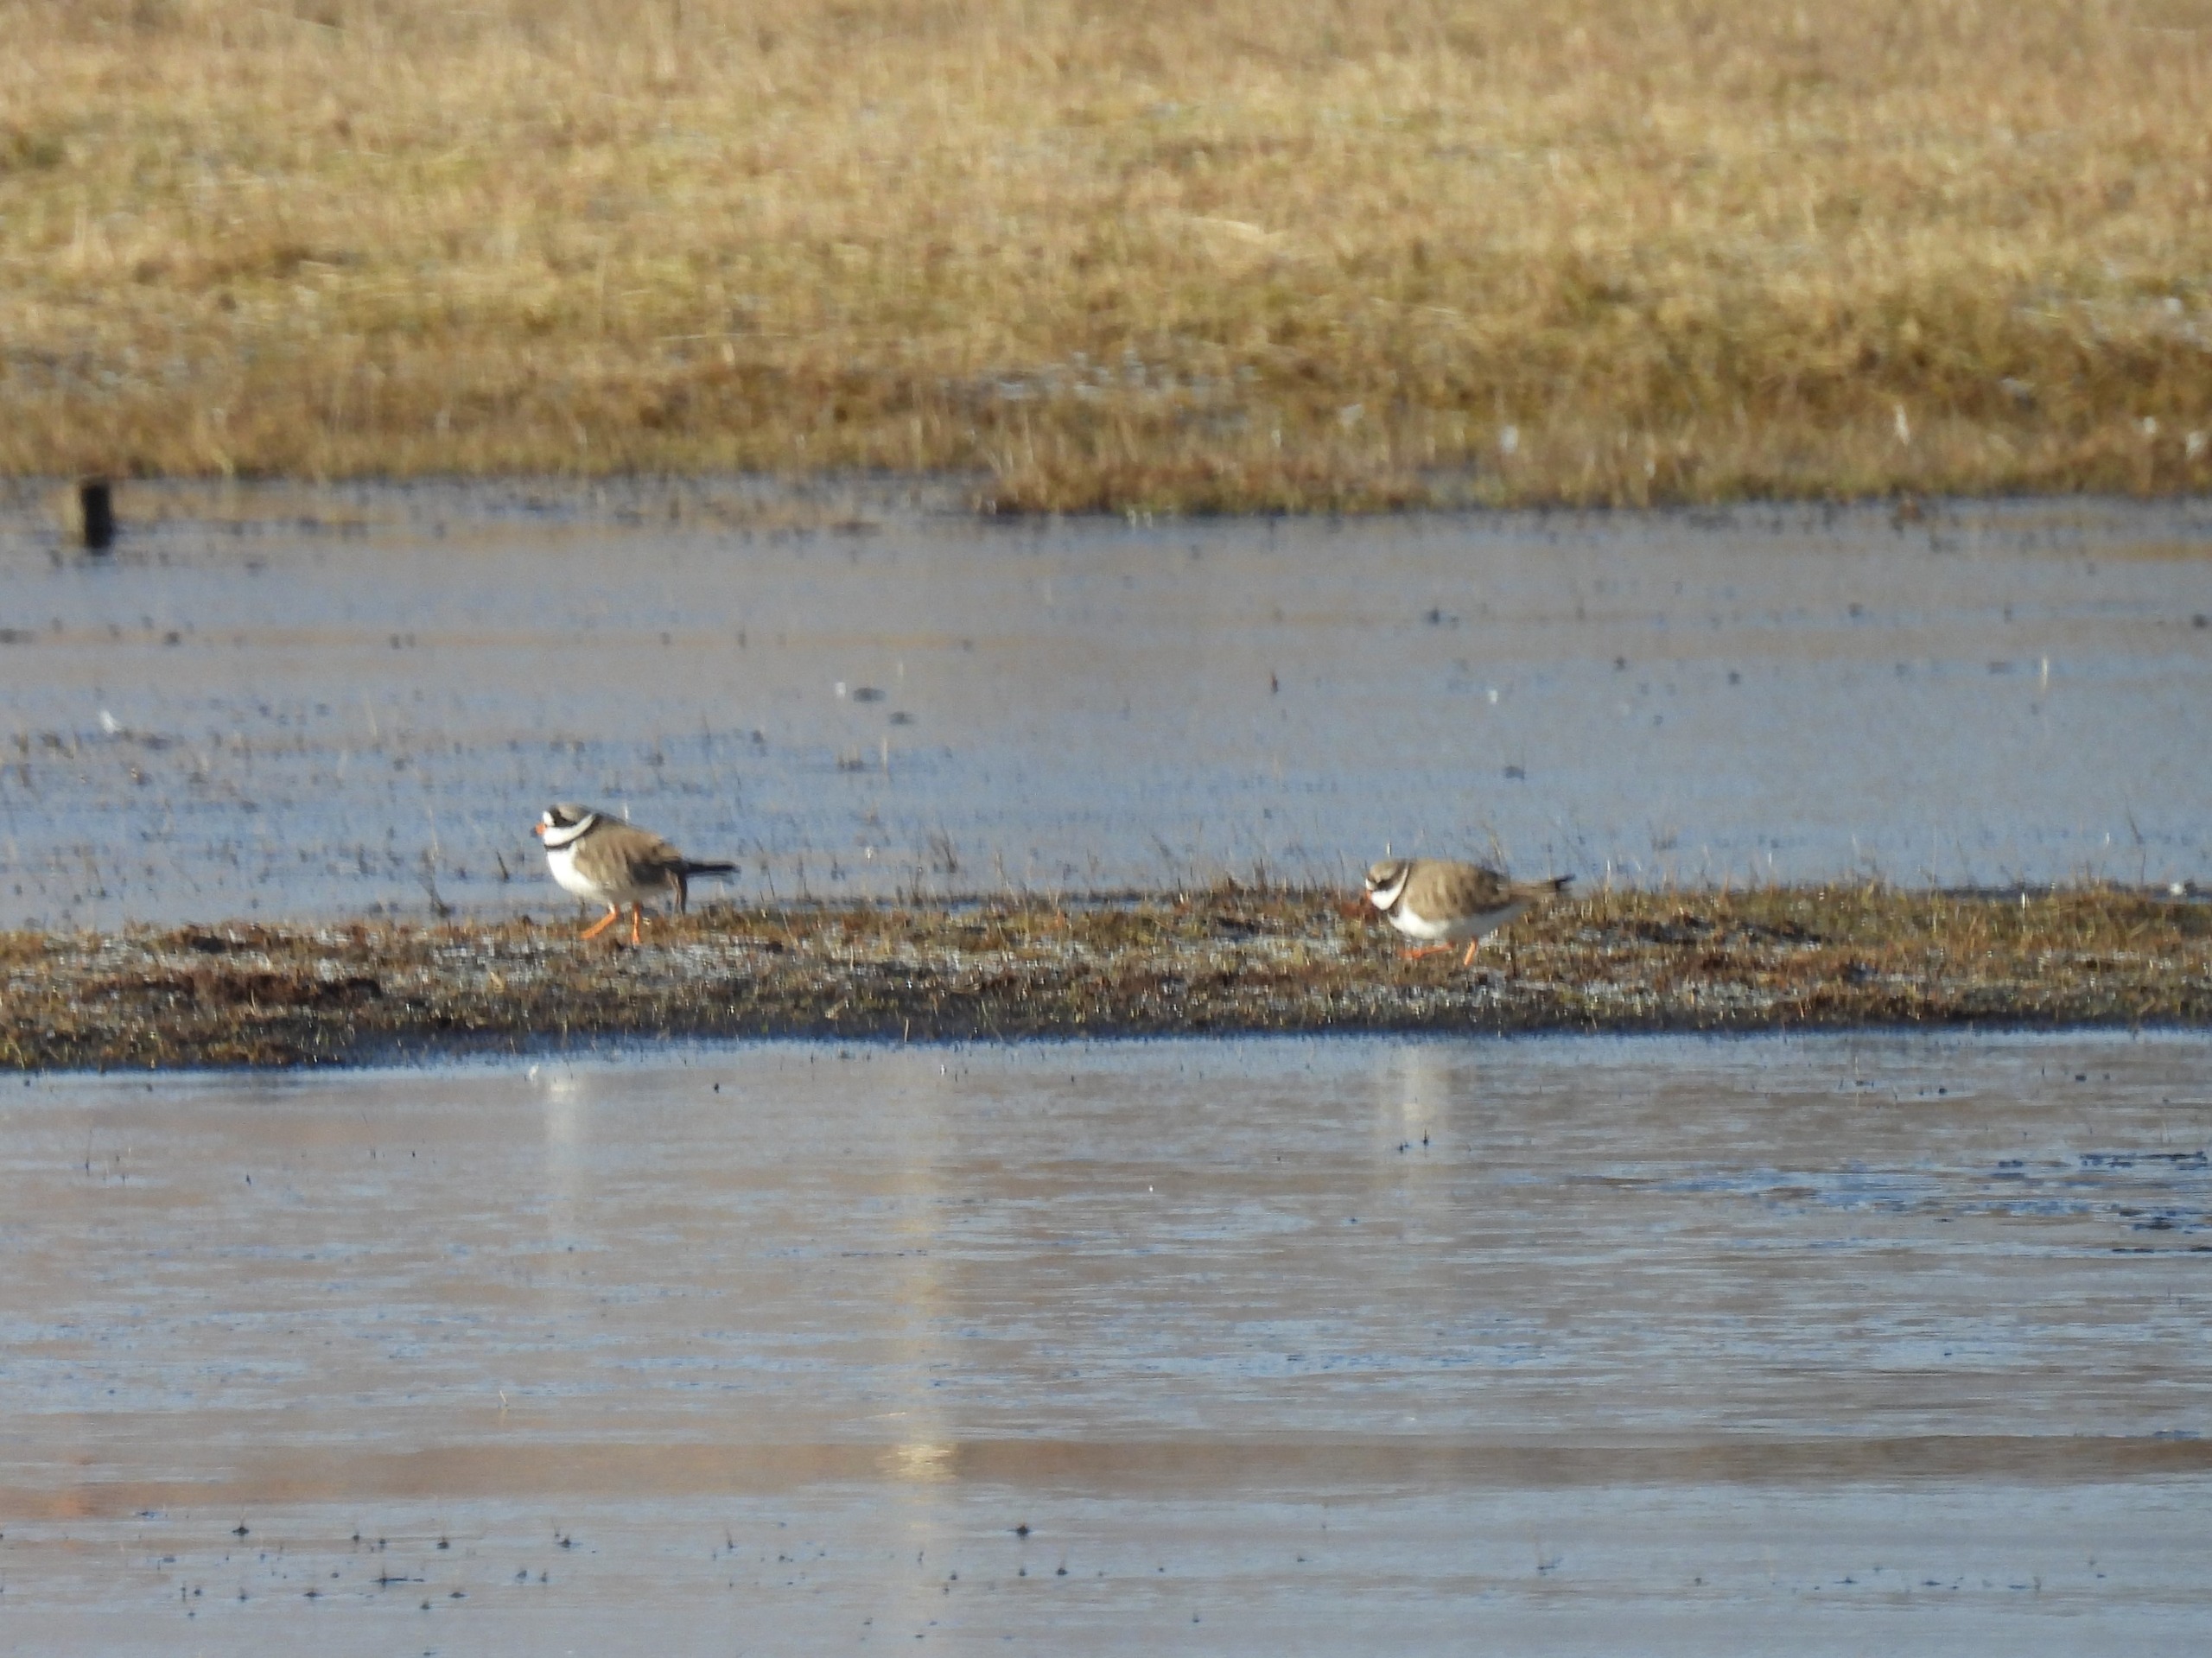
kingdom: Animalia
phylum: Chordata
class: Aves
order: Charadriiformes
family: Charadriidae
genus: Charadrius
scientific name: Charadrius hiaticula
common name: Stor præstekrave
